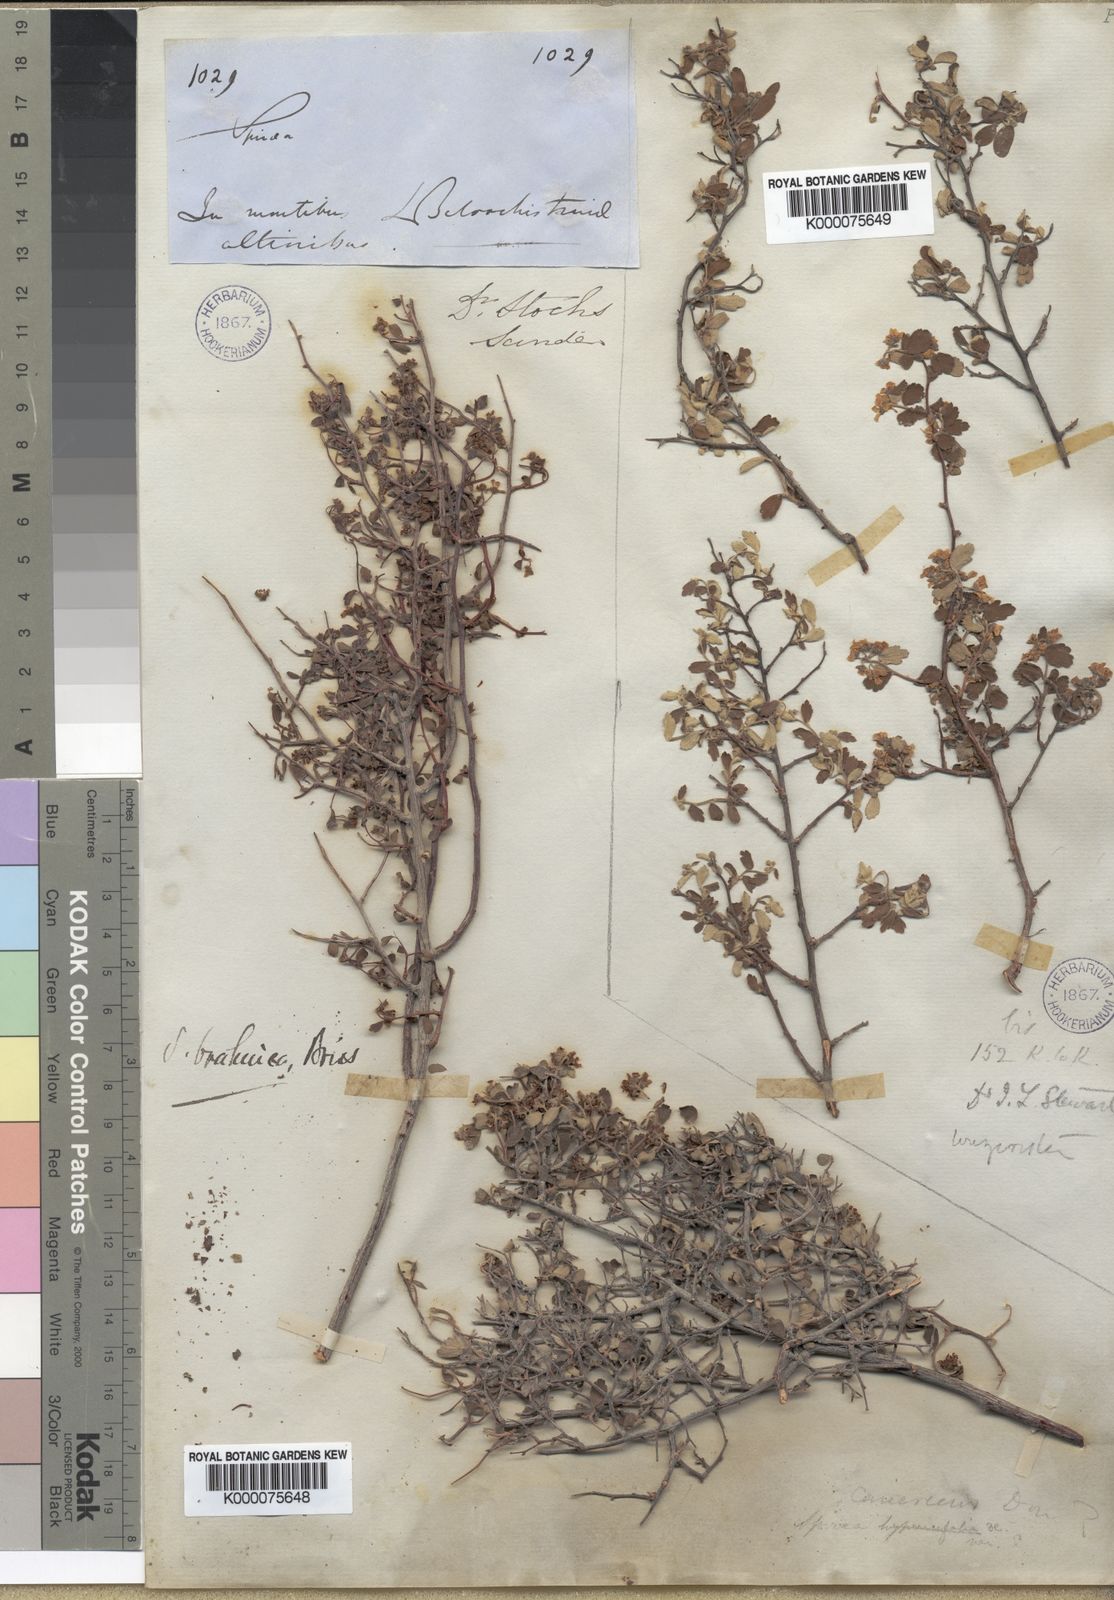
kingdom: Plantae
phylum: Tracheophyta
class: Magnoliopsida
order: Rosales
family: Rosaceae
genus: Spiraea
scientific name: Spiraea brahuica
